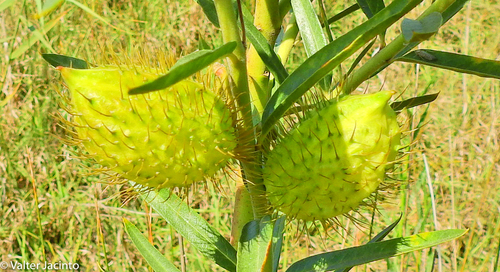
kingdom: Plantae
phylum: Tracheophyta
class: Magnoliopsida
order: Gentianales
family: Apocynaceae
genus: Gomphocarpus
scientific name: Gomphocarpus fruticosus
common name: Milkweed
